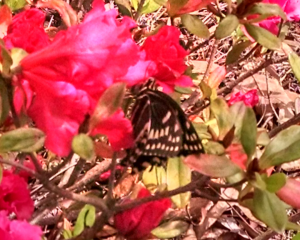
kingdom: Animalia
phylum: Arthropoda
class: Insecta
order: Lepidoptera
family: Papilionidae
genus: Pterourus
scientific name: Pterourus palamedes
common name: Palamedes Swallowtail
